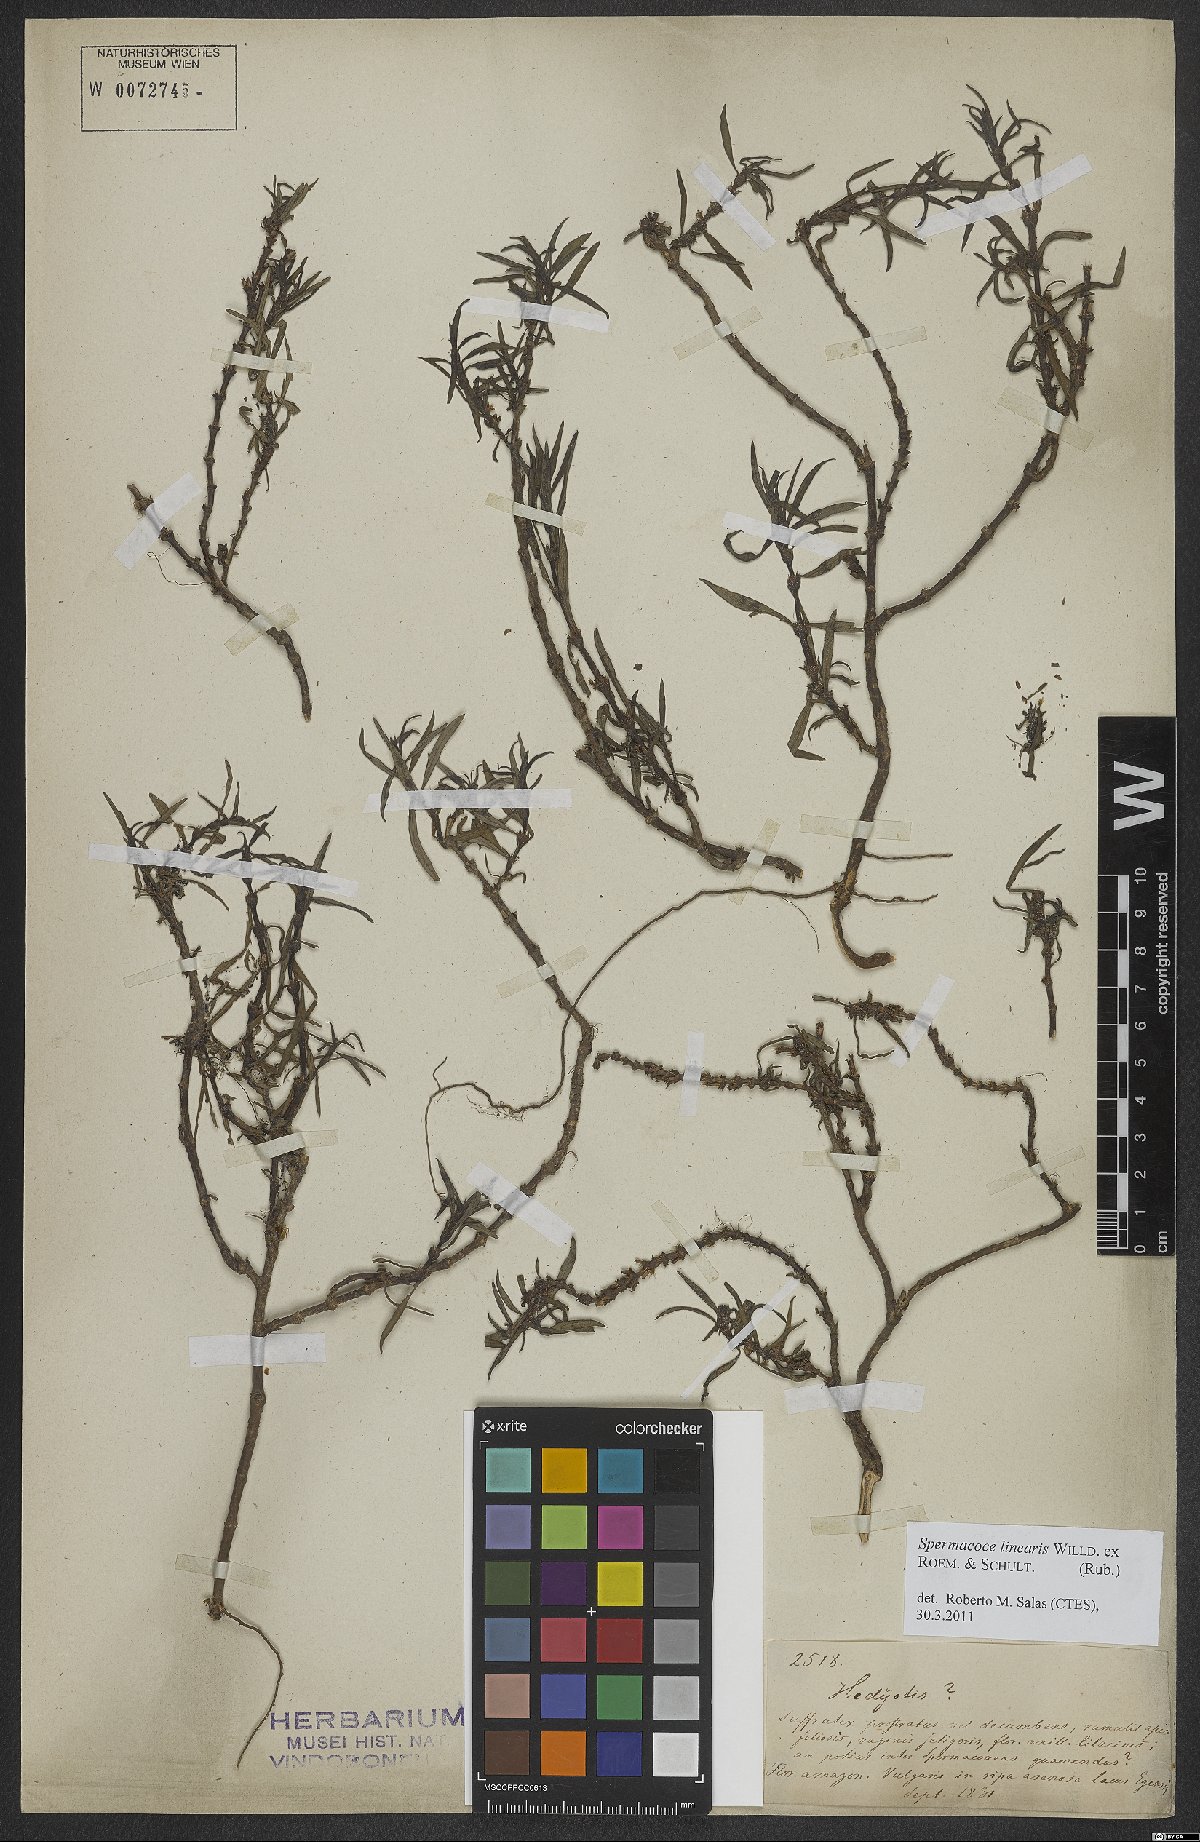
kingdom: Plantae
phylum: Tracheophyta
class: Magnoliopsida
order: Gentianales
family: Rubiaceae
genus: Spermacoce
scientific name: Spermacoce hyssopifolia
